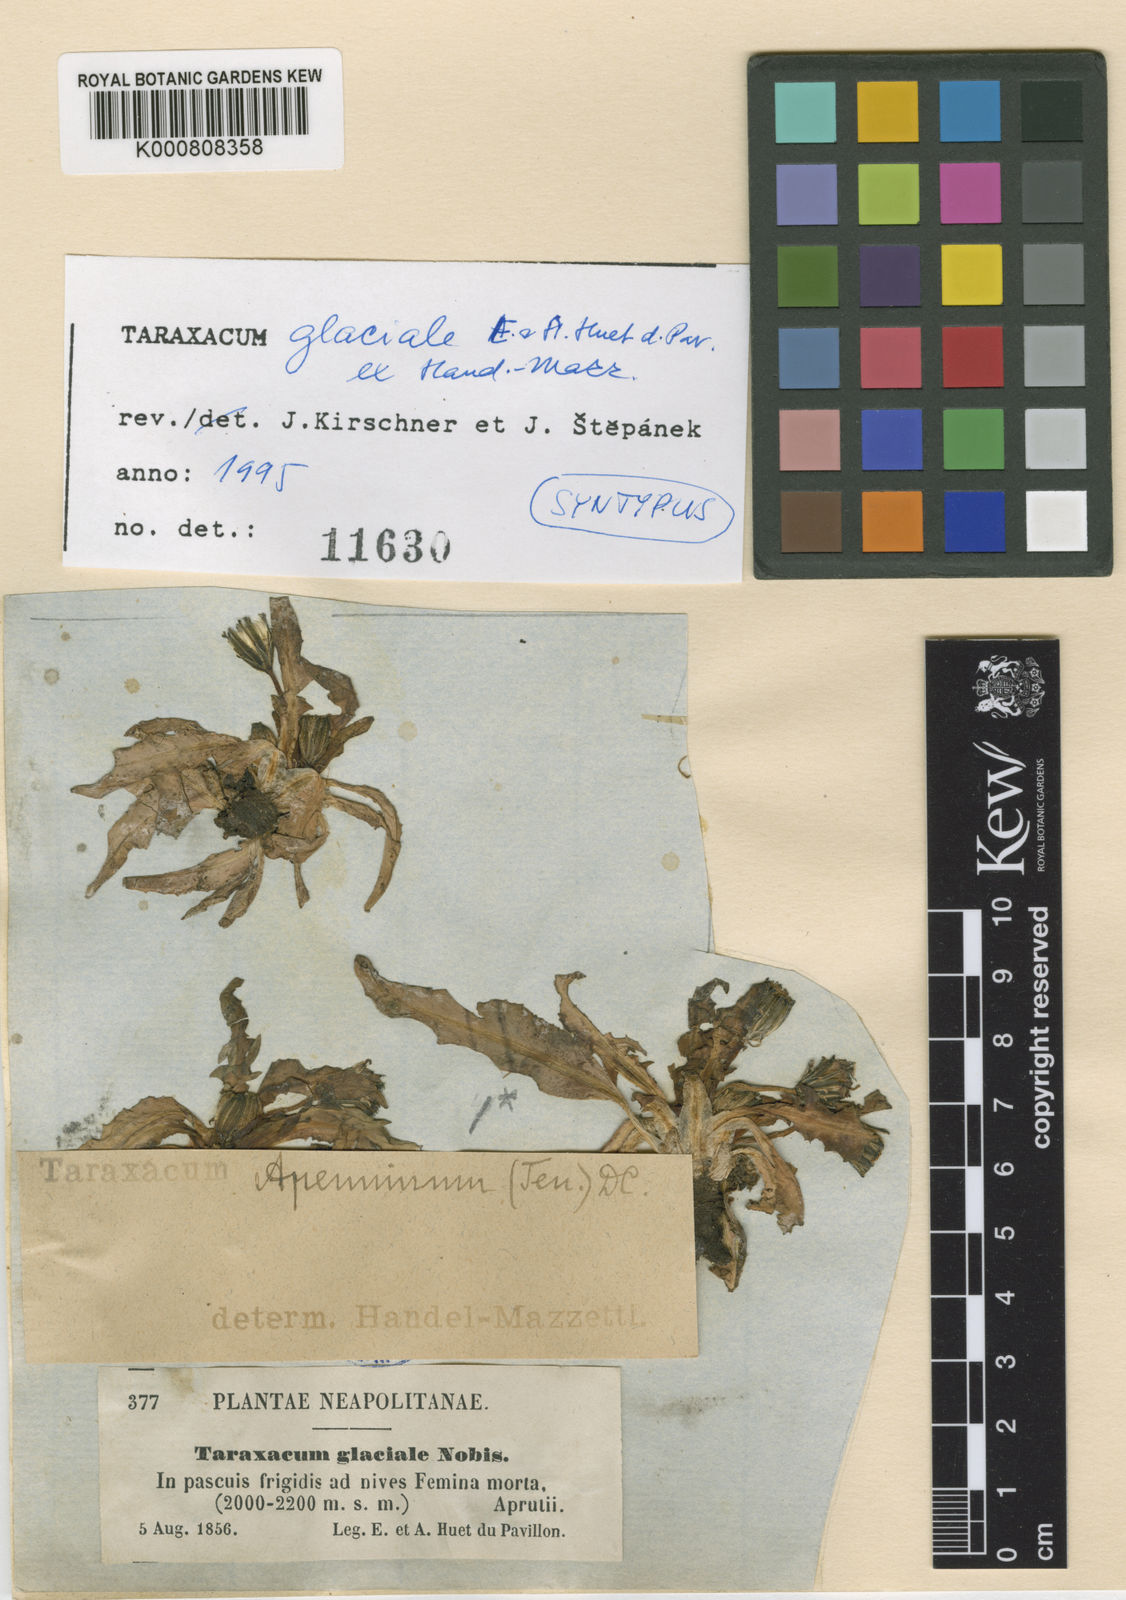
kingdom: Plantae
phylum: Tracheophyta
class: Magnoliopsida
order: Asterales
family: Asteraceae
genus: Taraxacum
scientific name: Taraxacum
